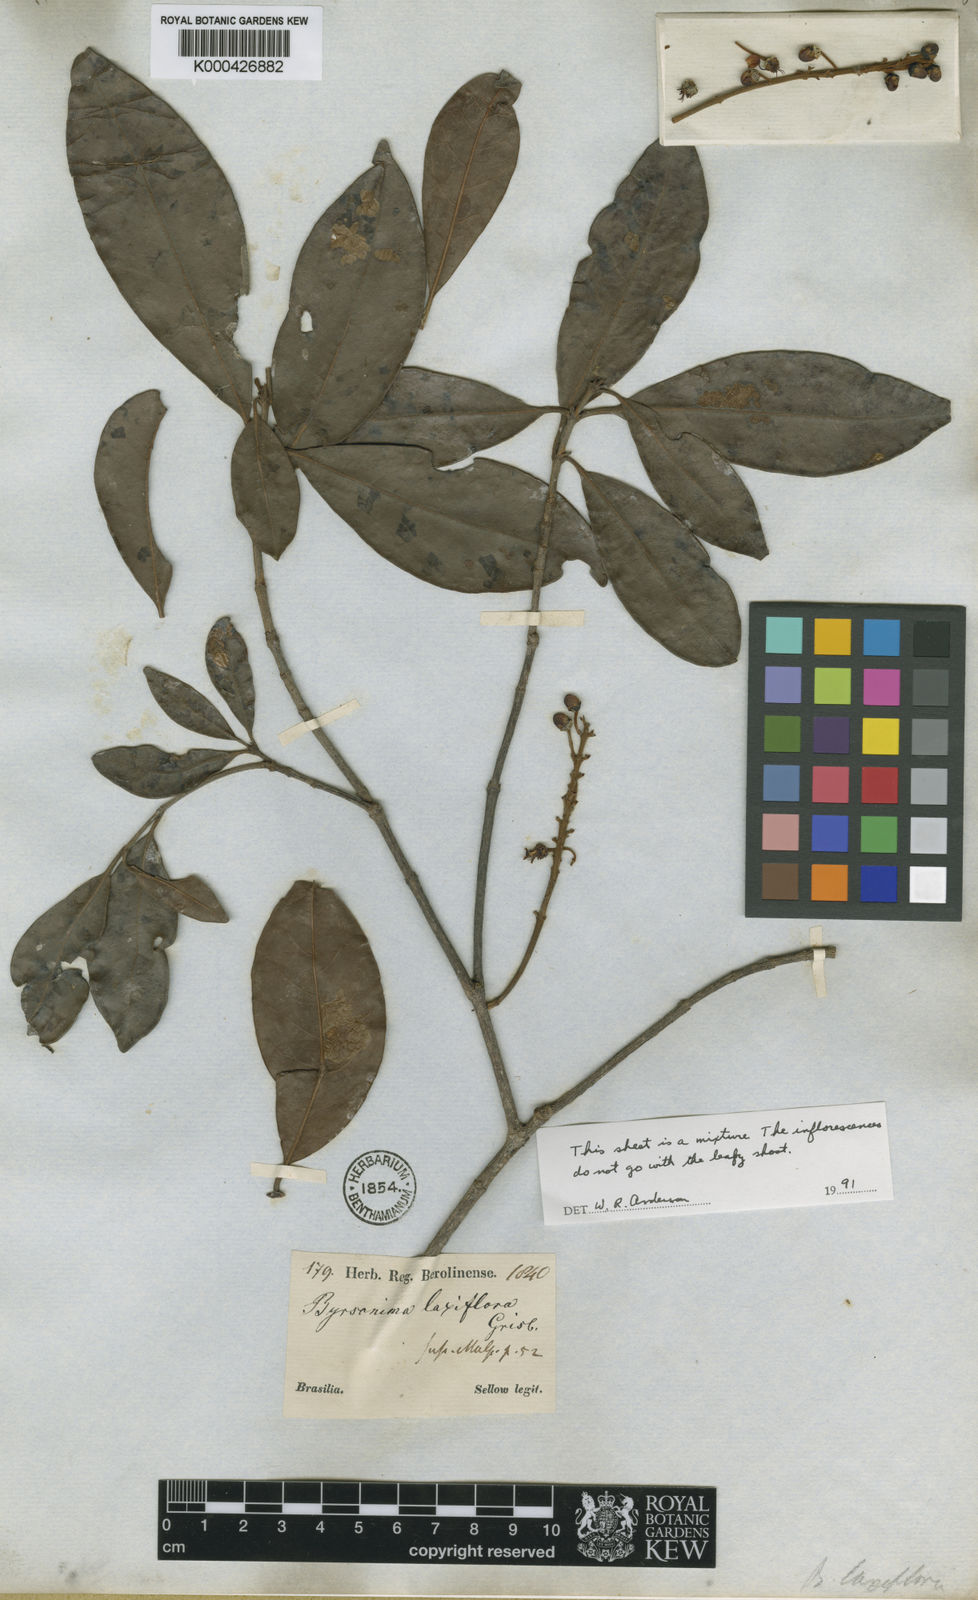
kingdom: Plantae
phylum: Tracheophyta
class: Magnoliopsida
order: Malpighiales
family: Malpighiaceae
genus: Byrsonima
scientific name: Byrsonima laxiflora
